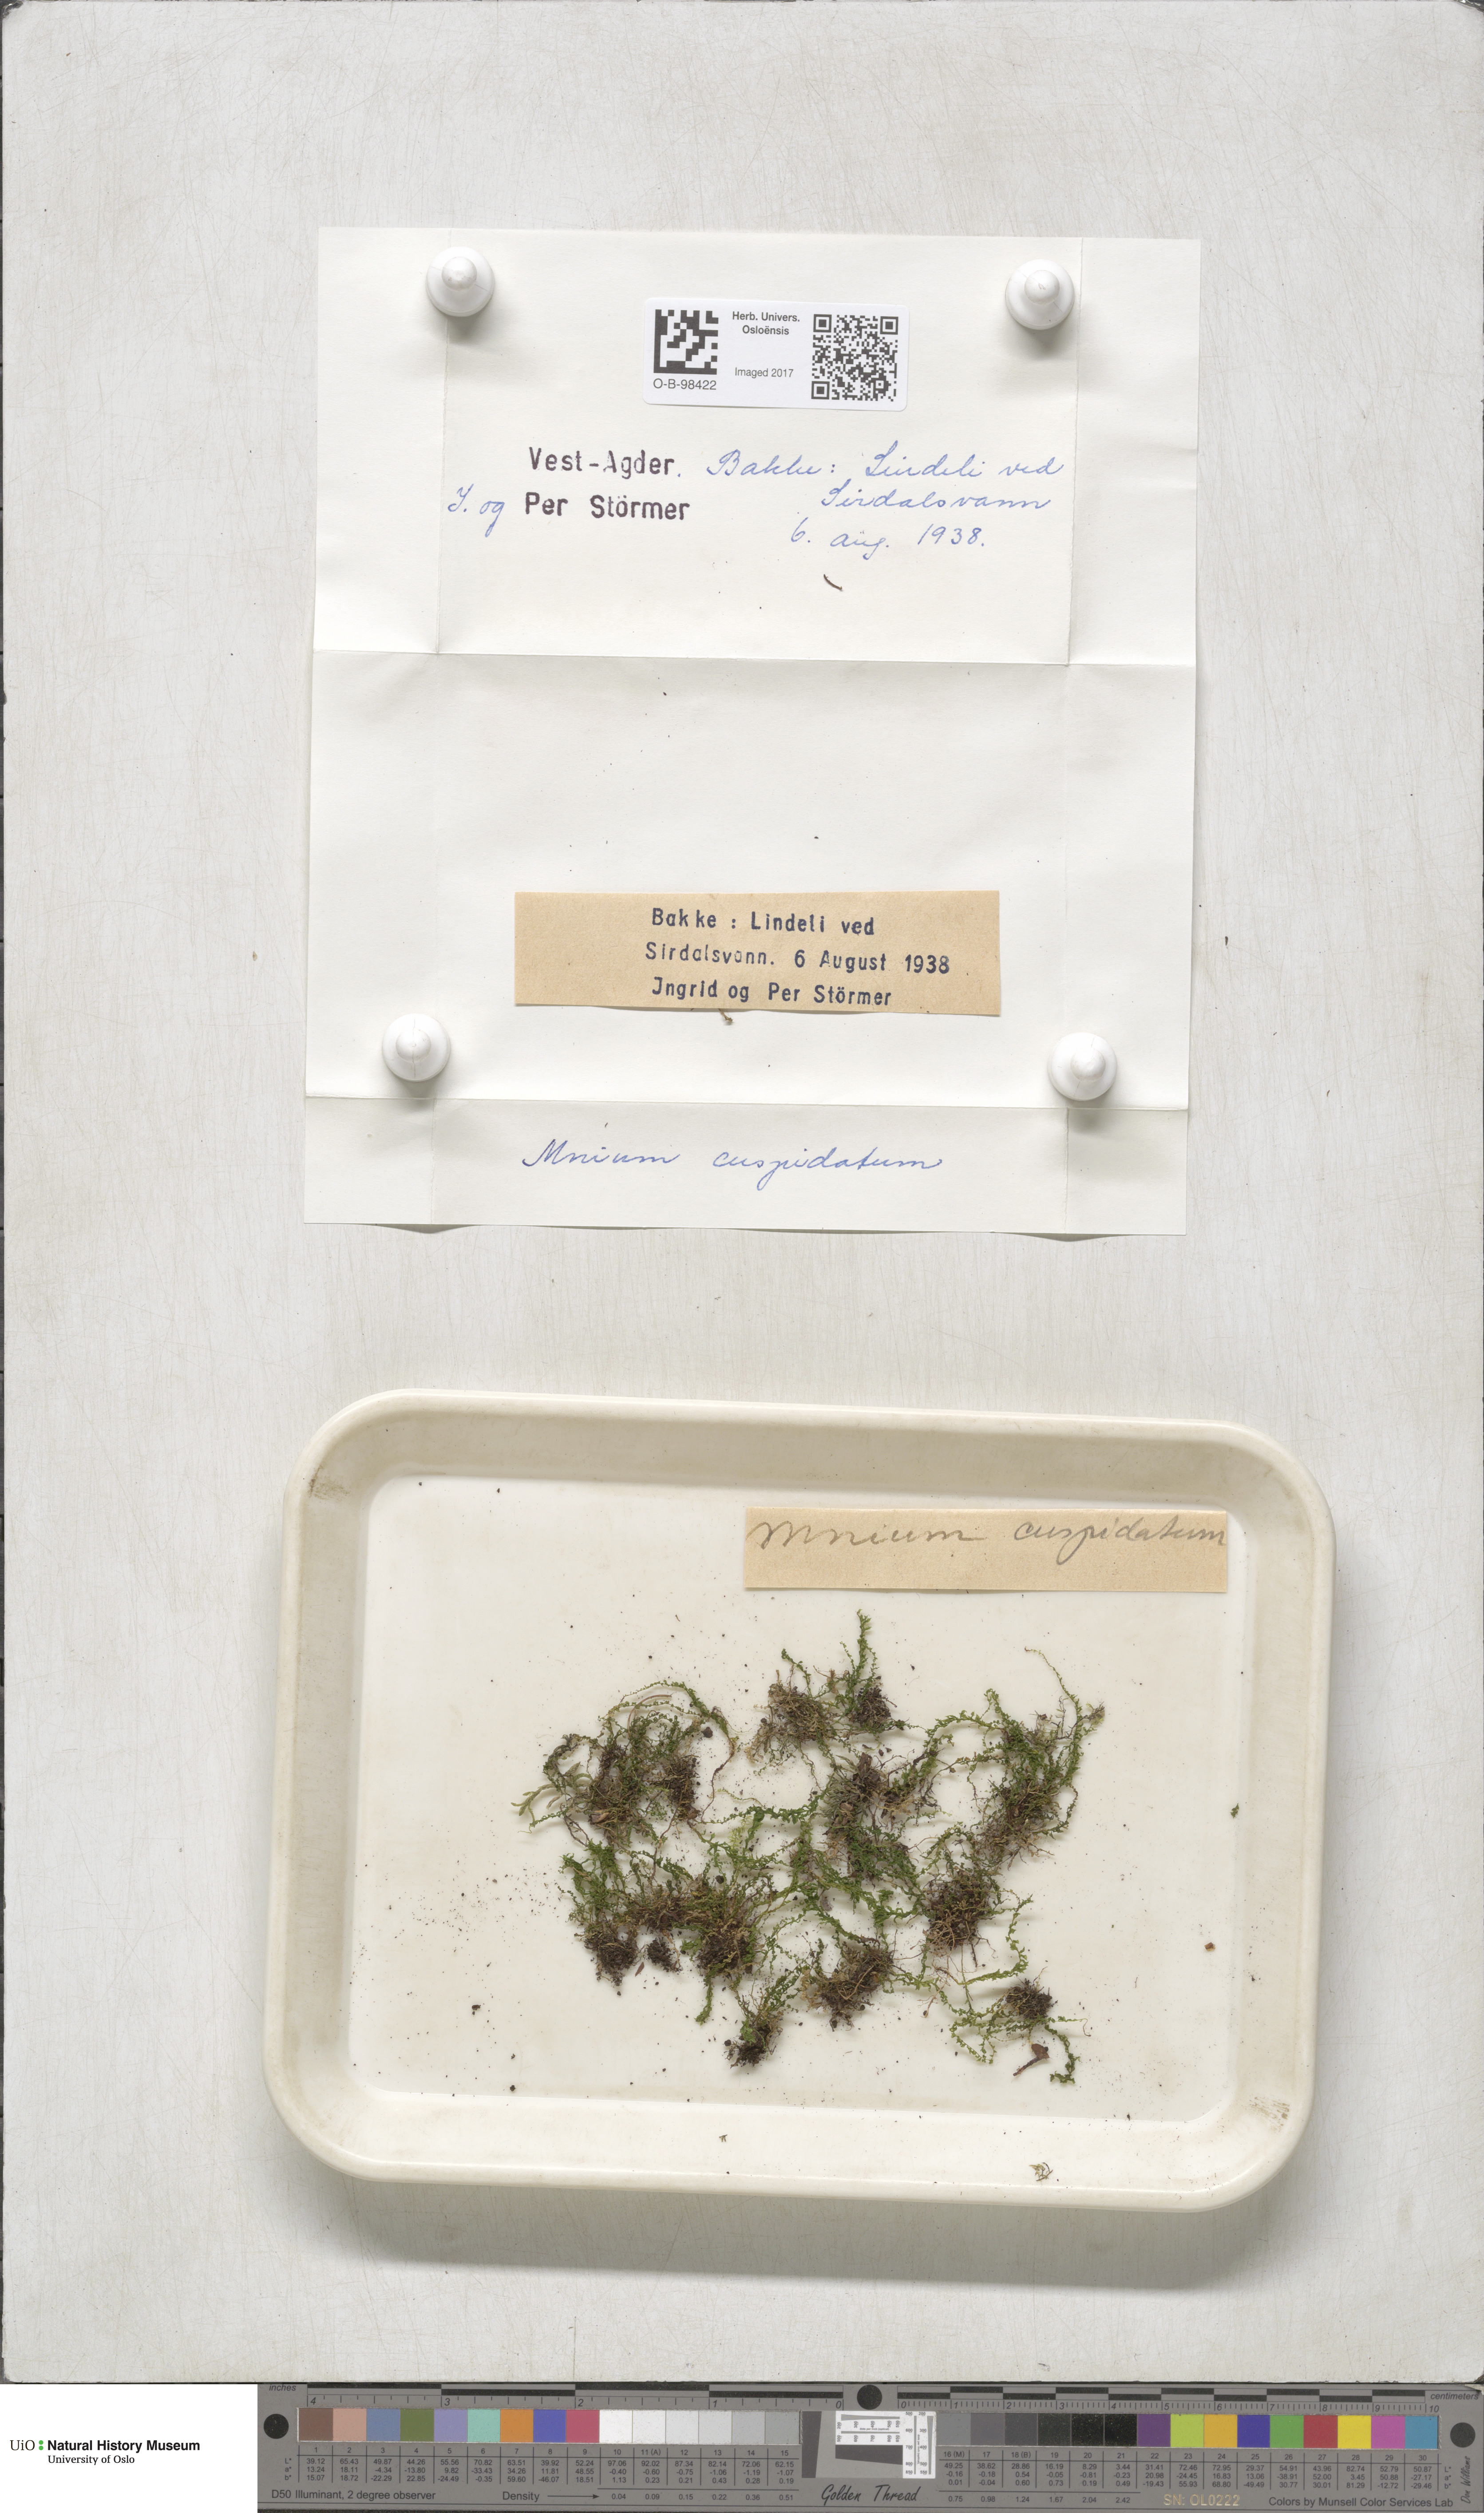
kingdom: Plantae
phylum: Bryophyta
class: Bryopsida
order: Bryales
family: Mniaceae
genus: Plagiomnium
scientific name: Plagiomnium cuspidatum
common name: Woodsy leafy moss
